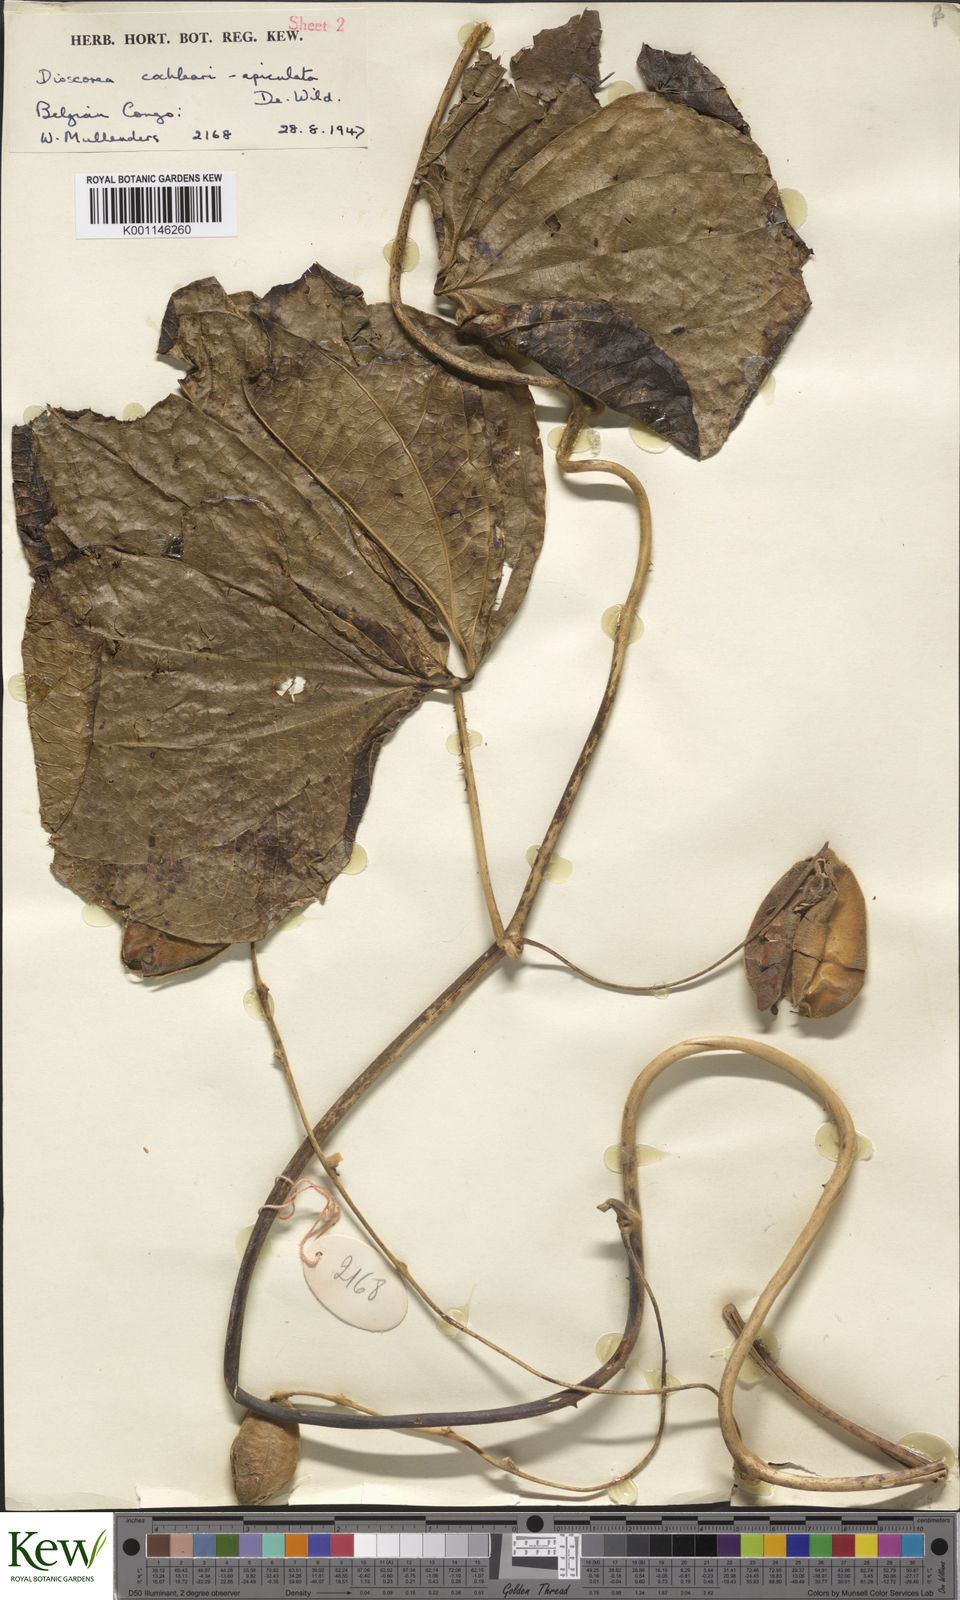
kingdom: Plantae
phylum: Tracheophyta
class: Liliopsida
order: Dioscoreales
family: Dioscoreaceae
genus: Dioscorea
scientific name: Dioscorea cochleariapiculata
